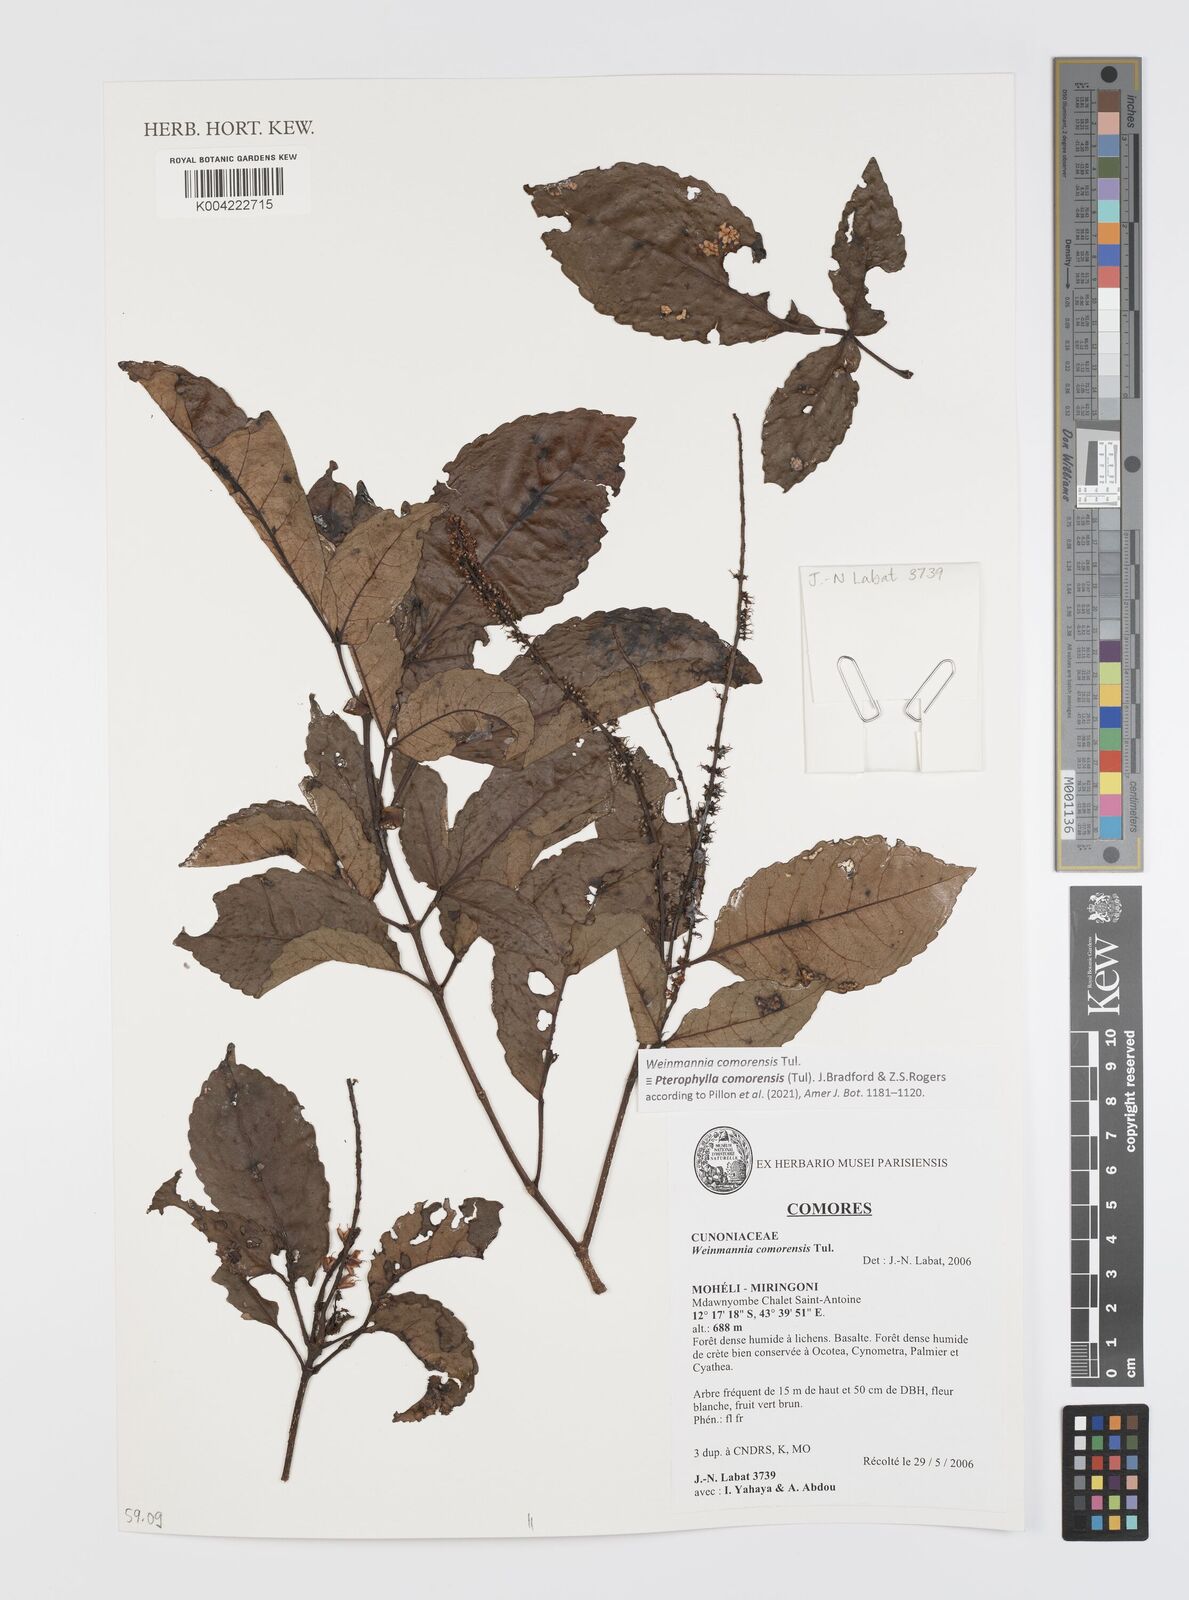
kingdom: Plantae
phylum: Tracheophyta
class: Magnoliopsida
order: Oxalidales
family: Cunoniaceae
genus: Pterophylla
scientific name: Pterophylla
